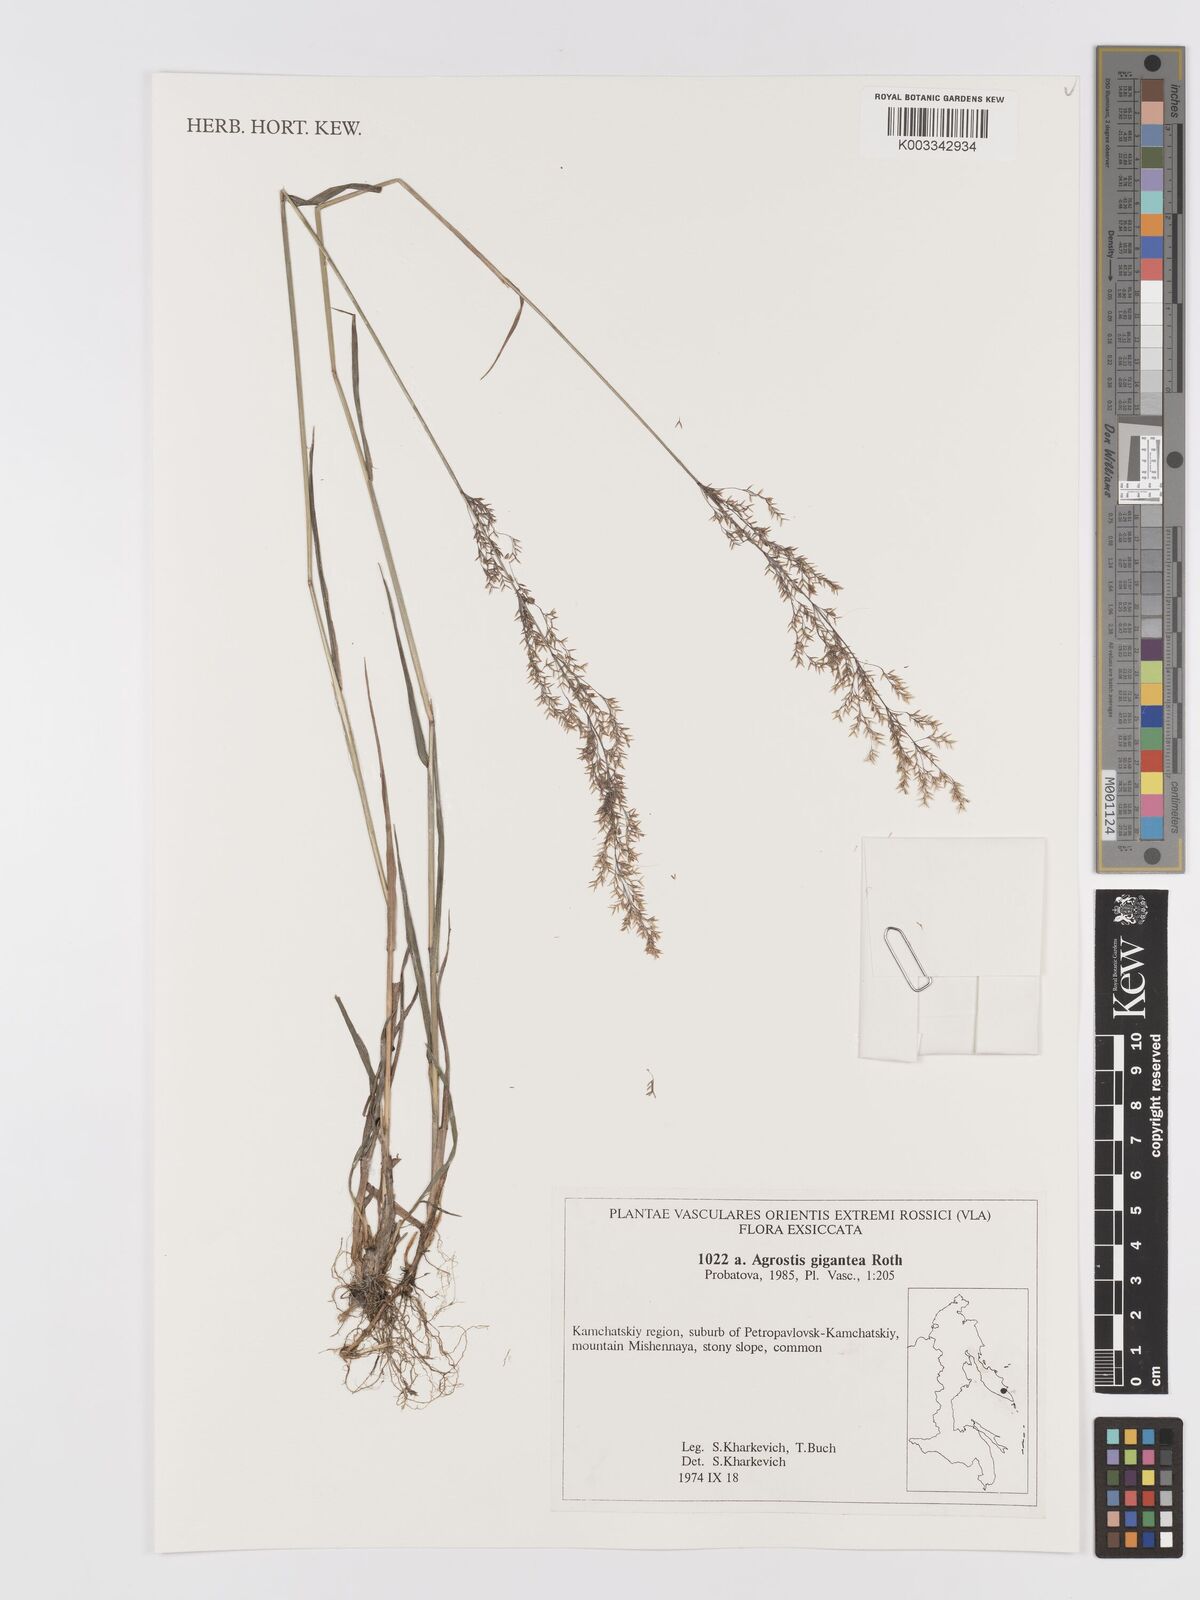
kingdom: Plantae
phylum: Tracheophyta
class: Liliopsida
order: Poales
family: Poaceae
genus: Agrostis
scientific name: Agrostis gigantea
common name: Black bent
